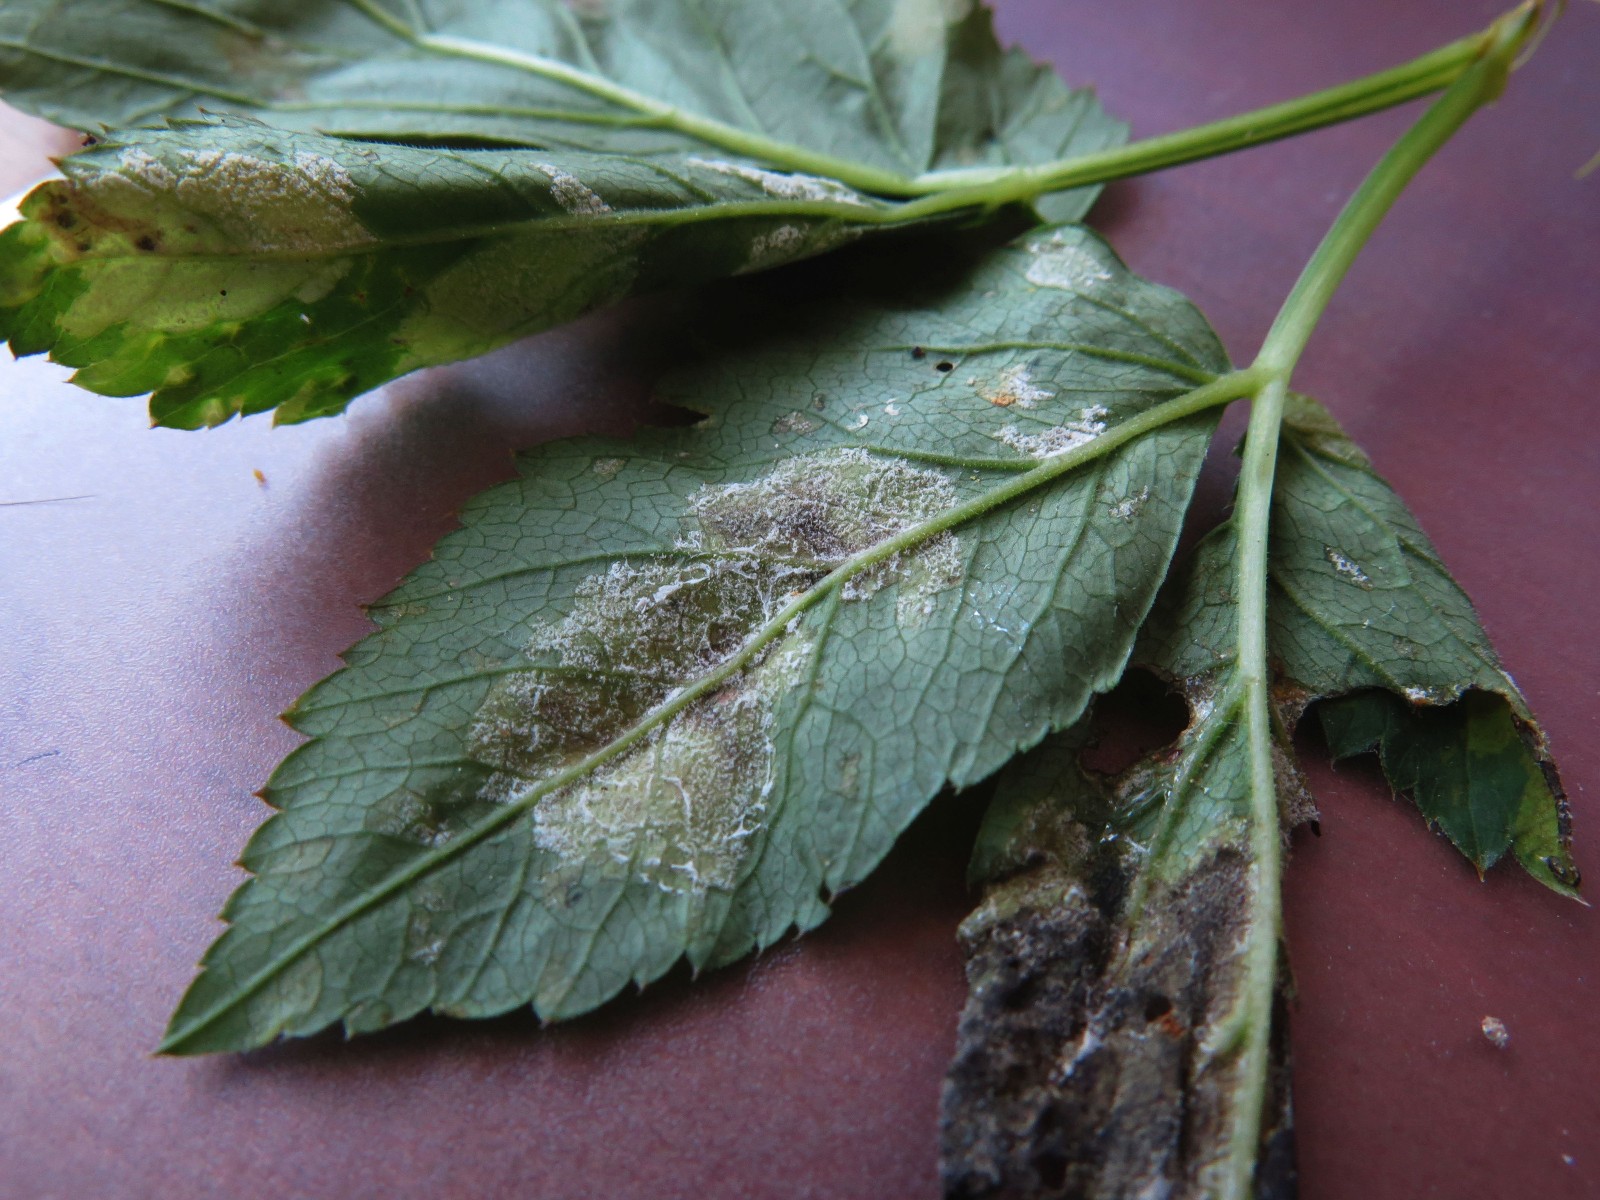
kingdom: Chromista
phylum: Oomycota
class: Peronosporea
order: Peronosporales
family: Peronosporaceae
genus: Peronospora
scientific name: Peronospora crustosa
